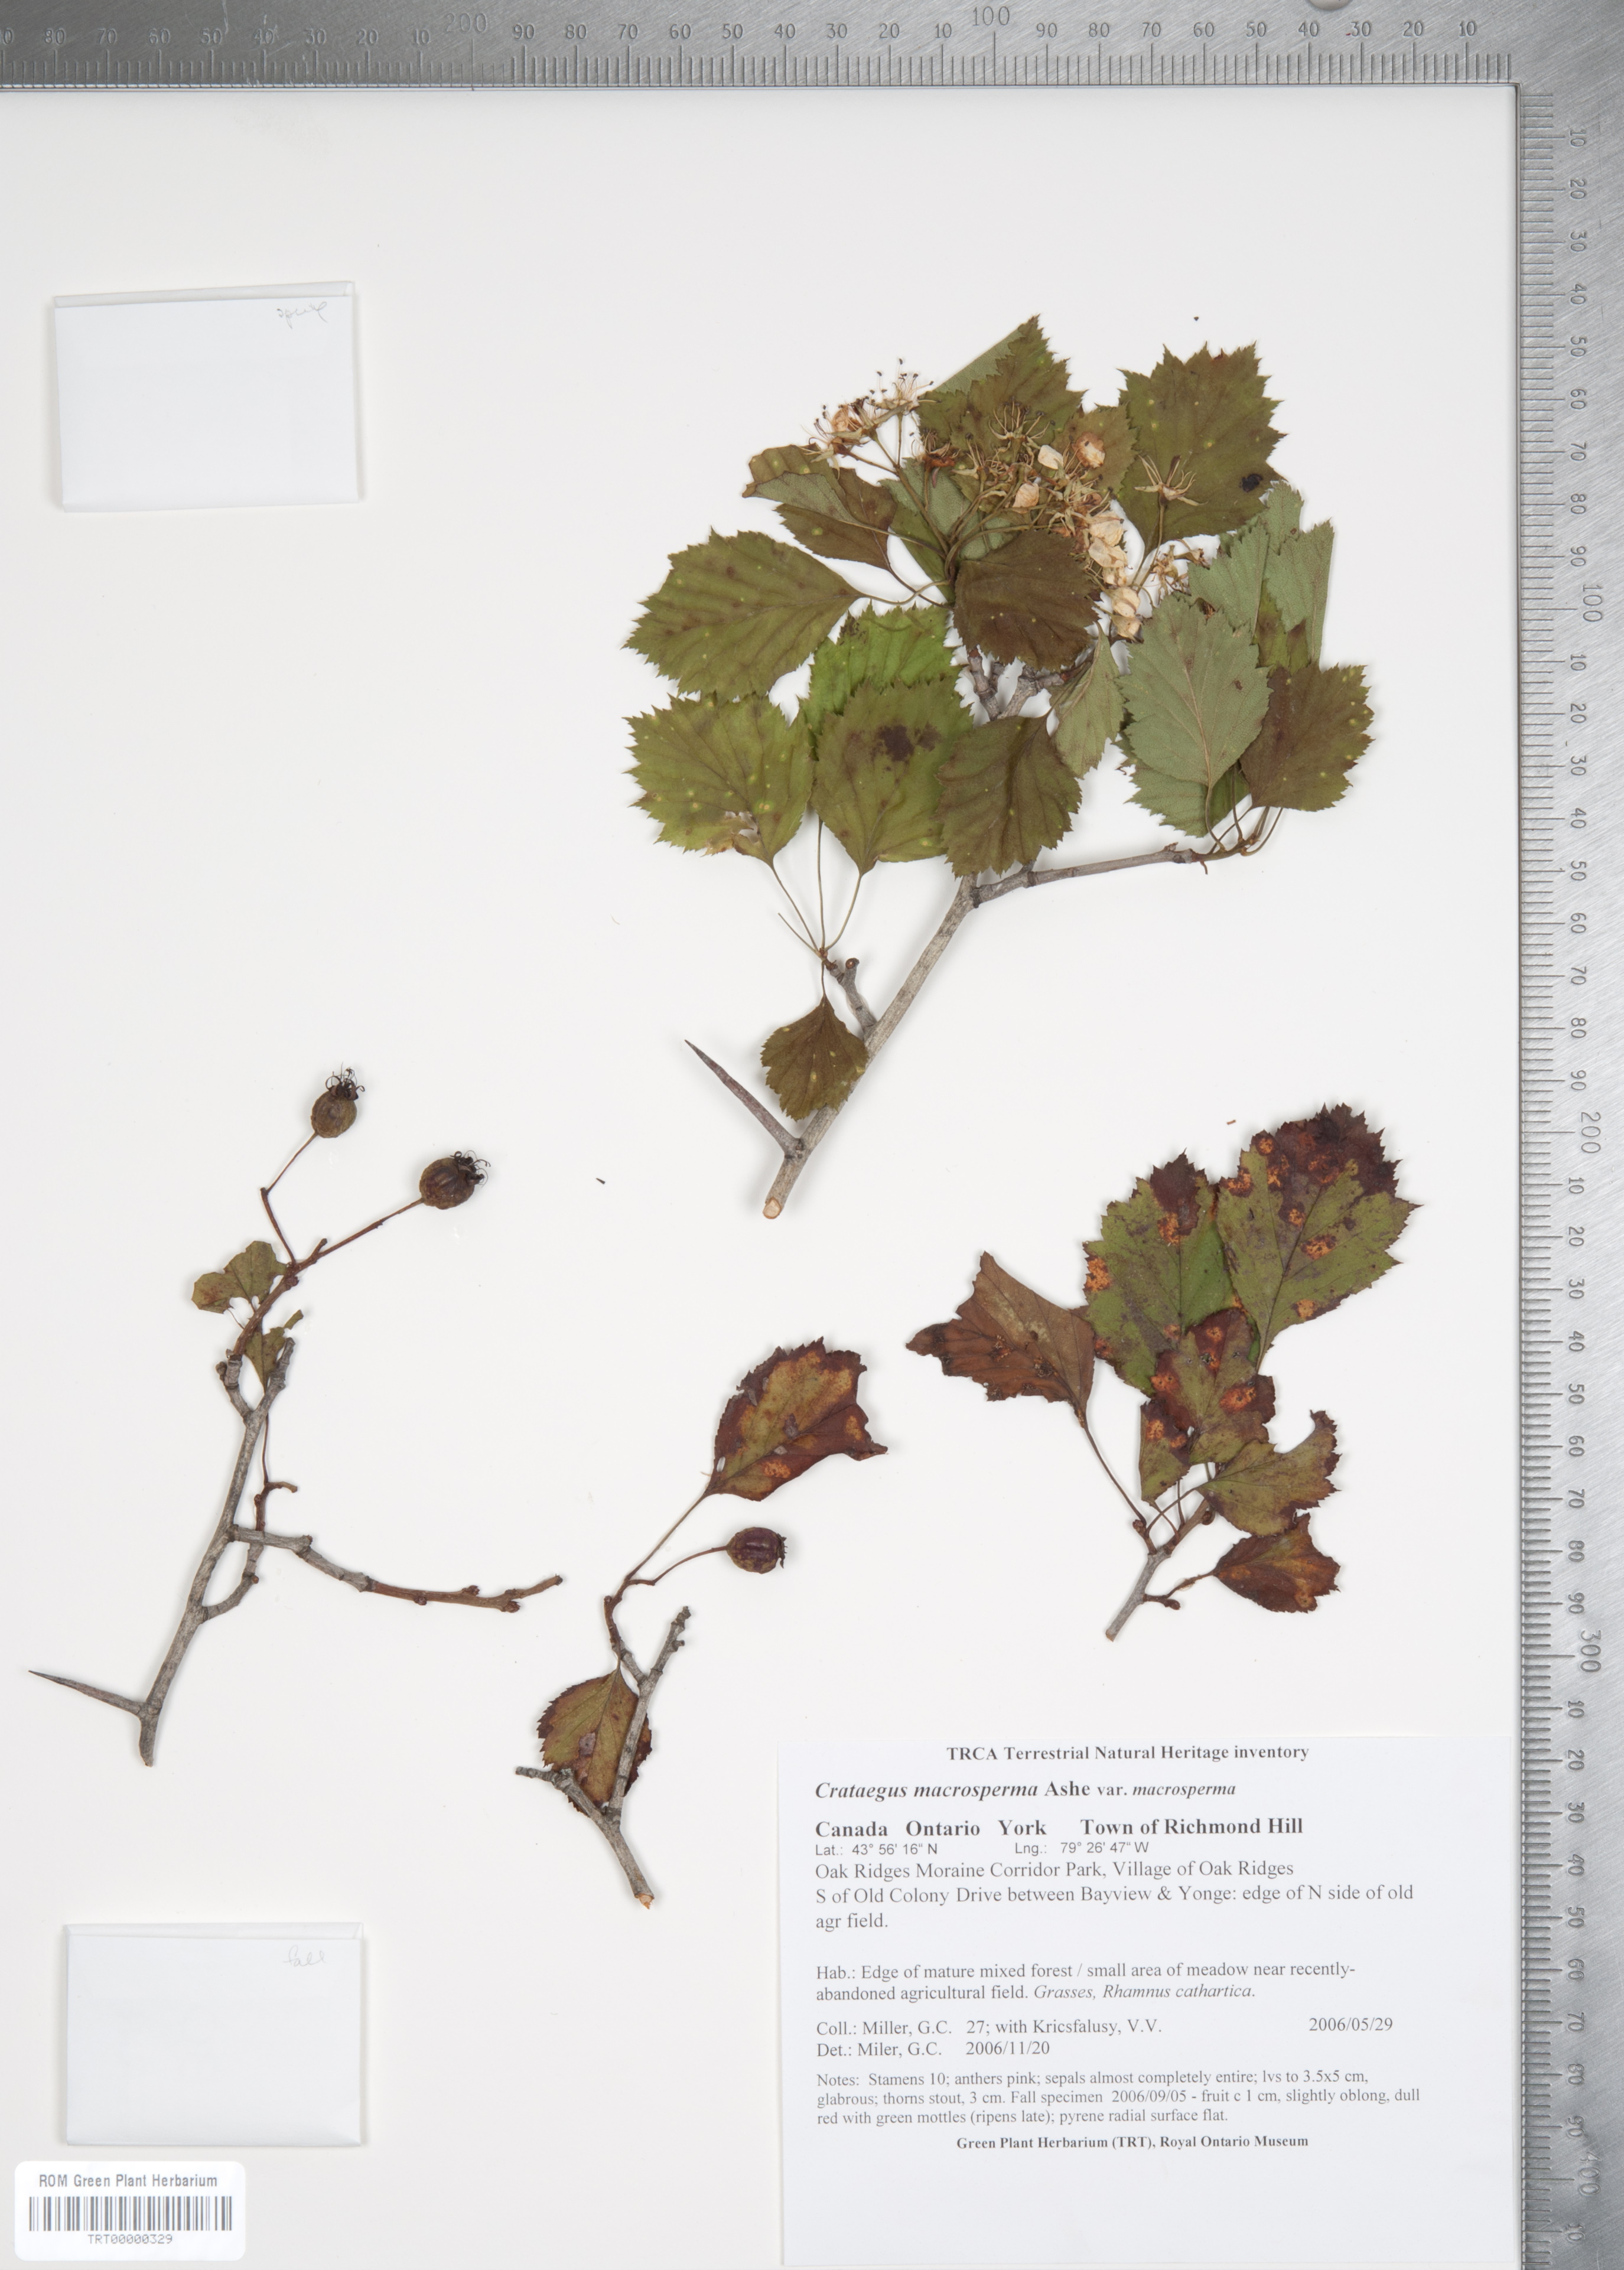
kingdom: Plantae
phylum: Tracheophyta
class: Magnoliopsida
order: Rosales
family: Rosaceae
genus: Crataegus
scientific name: Crataegus macrosperma
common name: Variable hawthorn
